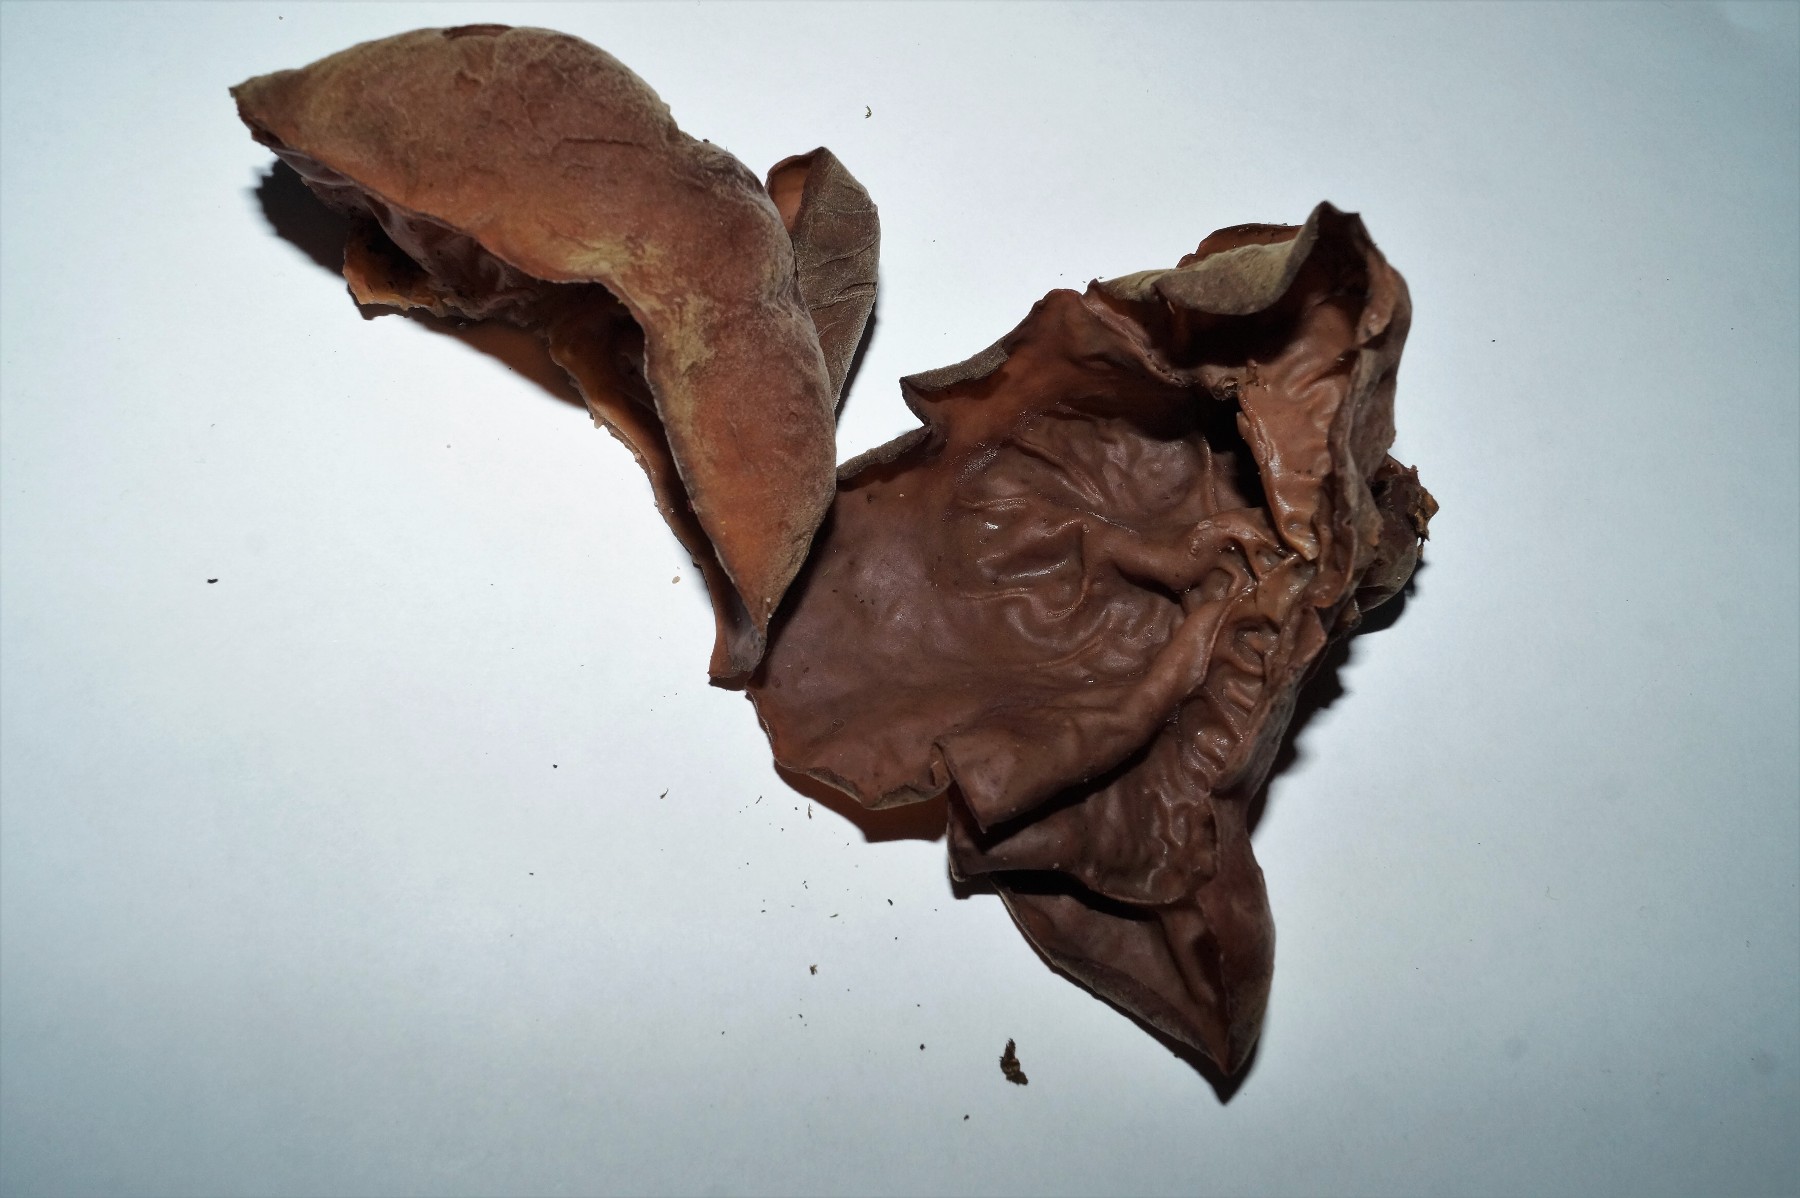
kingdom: Fungi
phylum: Basidiomycota
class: Agaricomycetes
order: Auriculariales
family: Auriculariaceae
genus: Auricularia
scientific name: Auricularia auricula-judae
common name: almindelig judasøre
